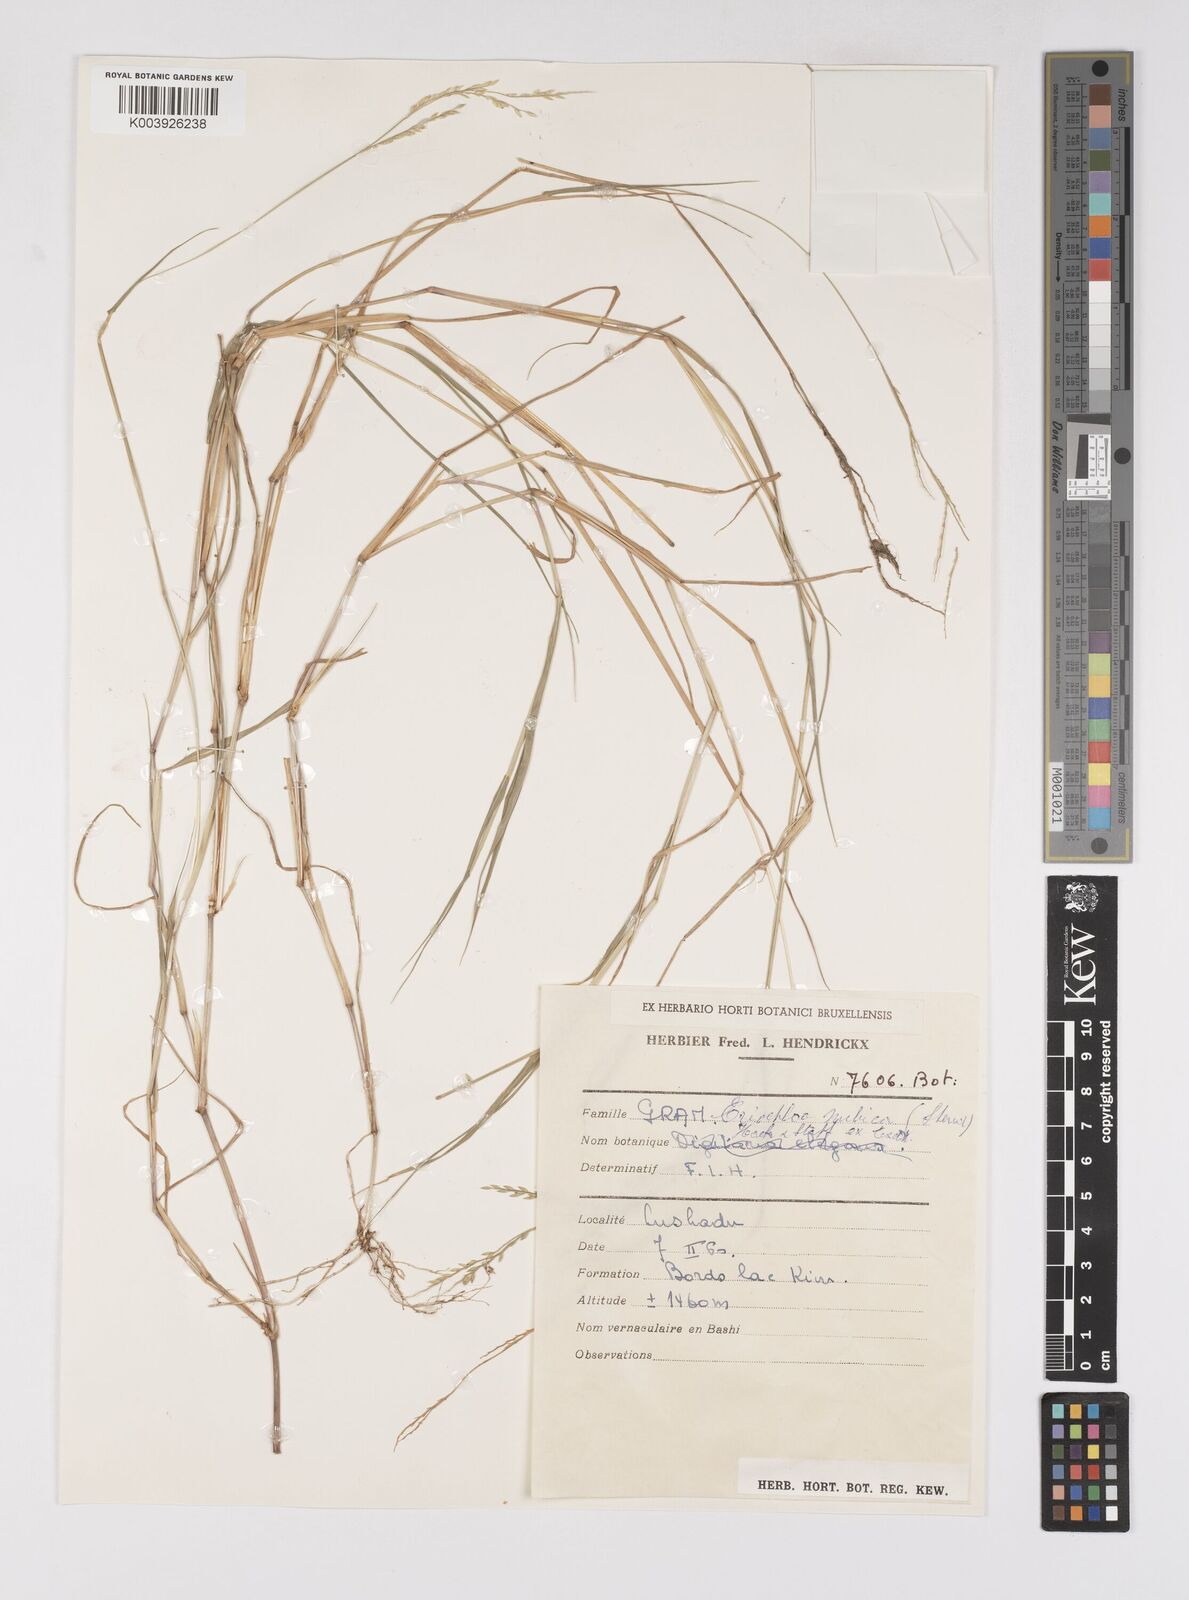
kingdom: Plantae
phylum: Tracheophyta
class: Liliopsida
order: Poales
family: Poaceae
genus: Eriochloa
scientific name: Eriochloa procera
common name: Spring grass
